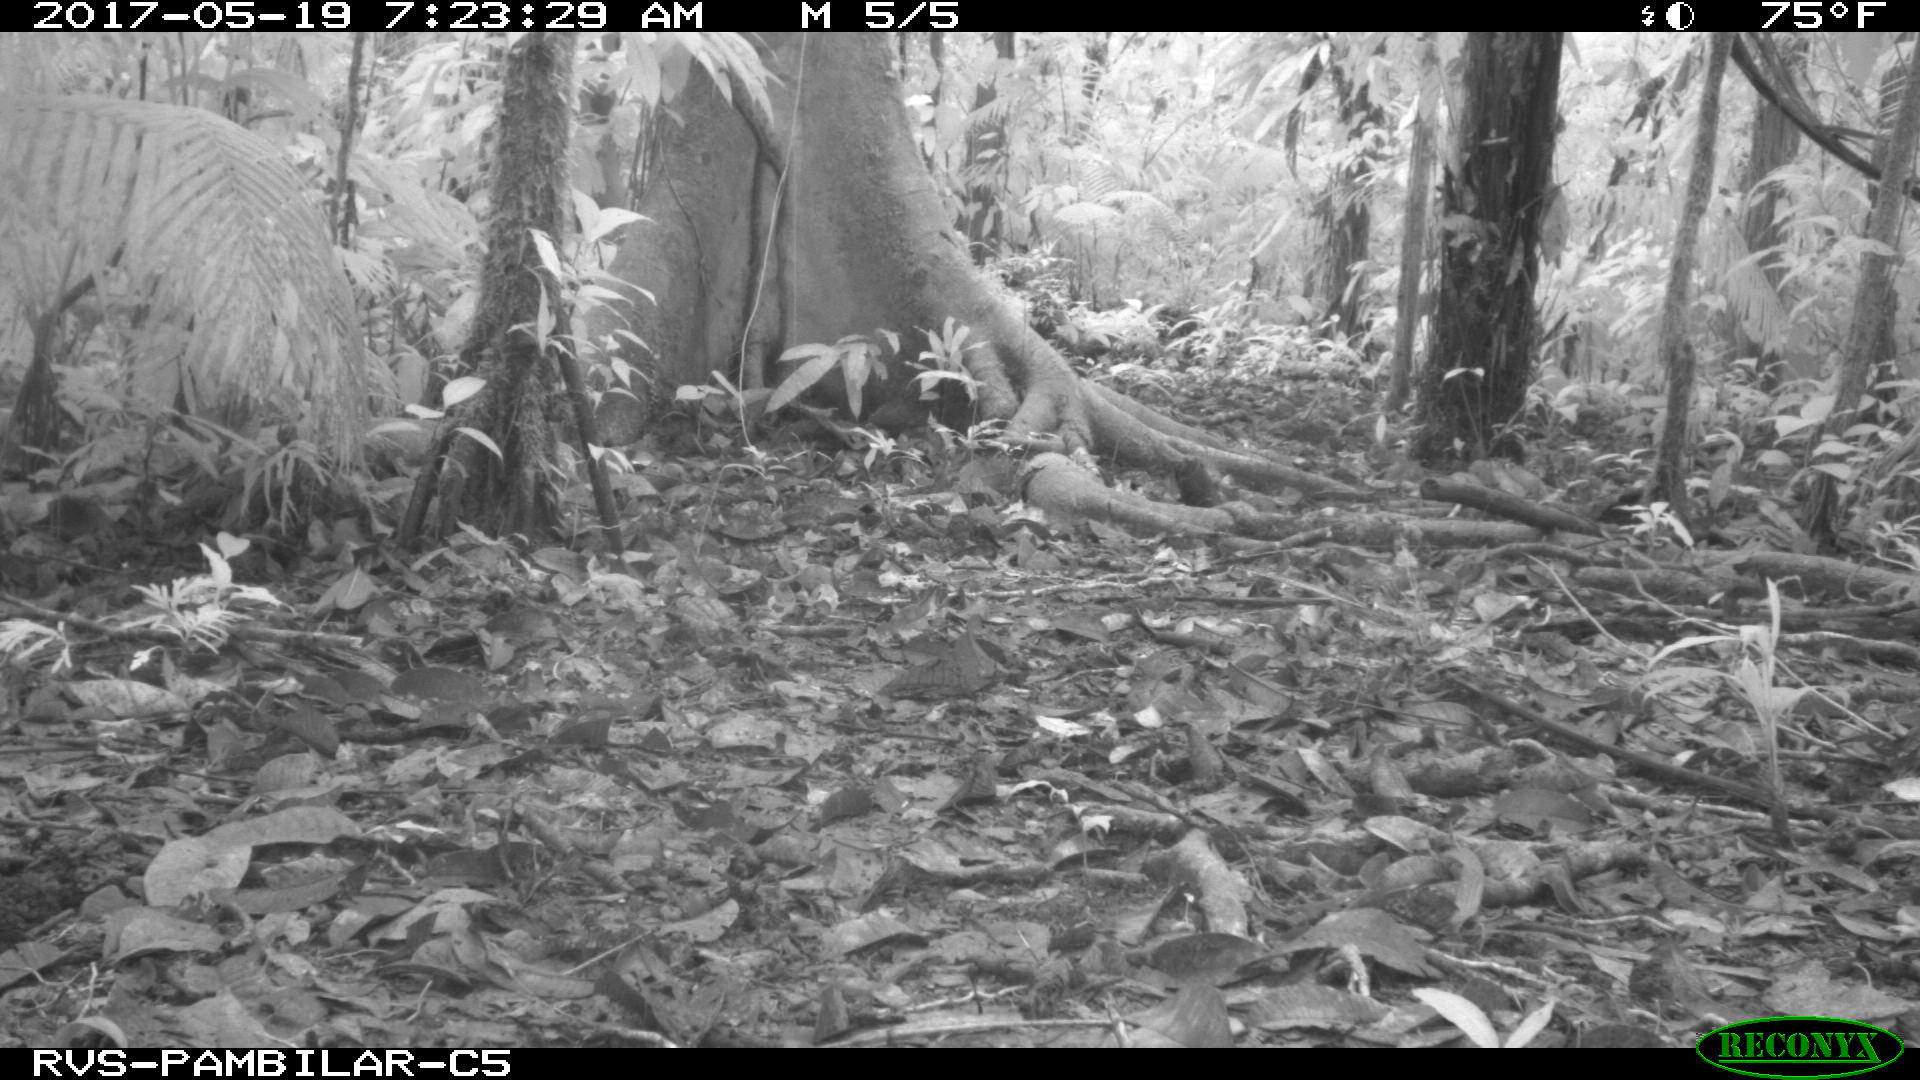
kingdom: Animalia
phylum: Chordata
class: Mammalia
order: Rodentia
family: Dasyproctidae
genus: Dasyprocta
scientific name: Dasyprocta punctata
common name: Central american agouti
